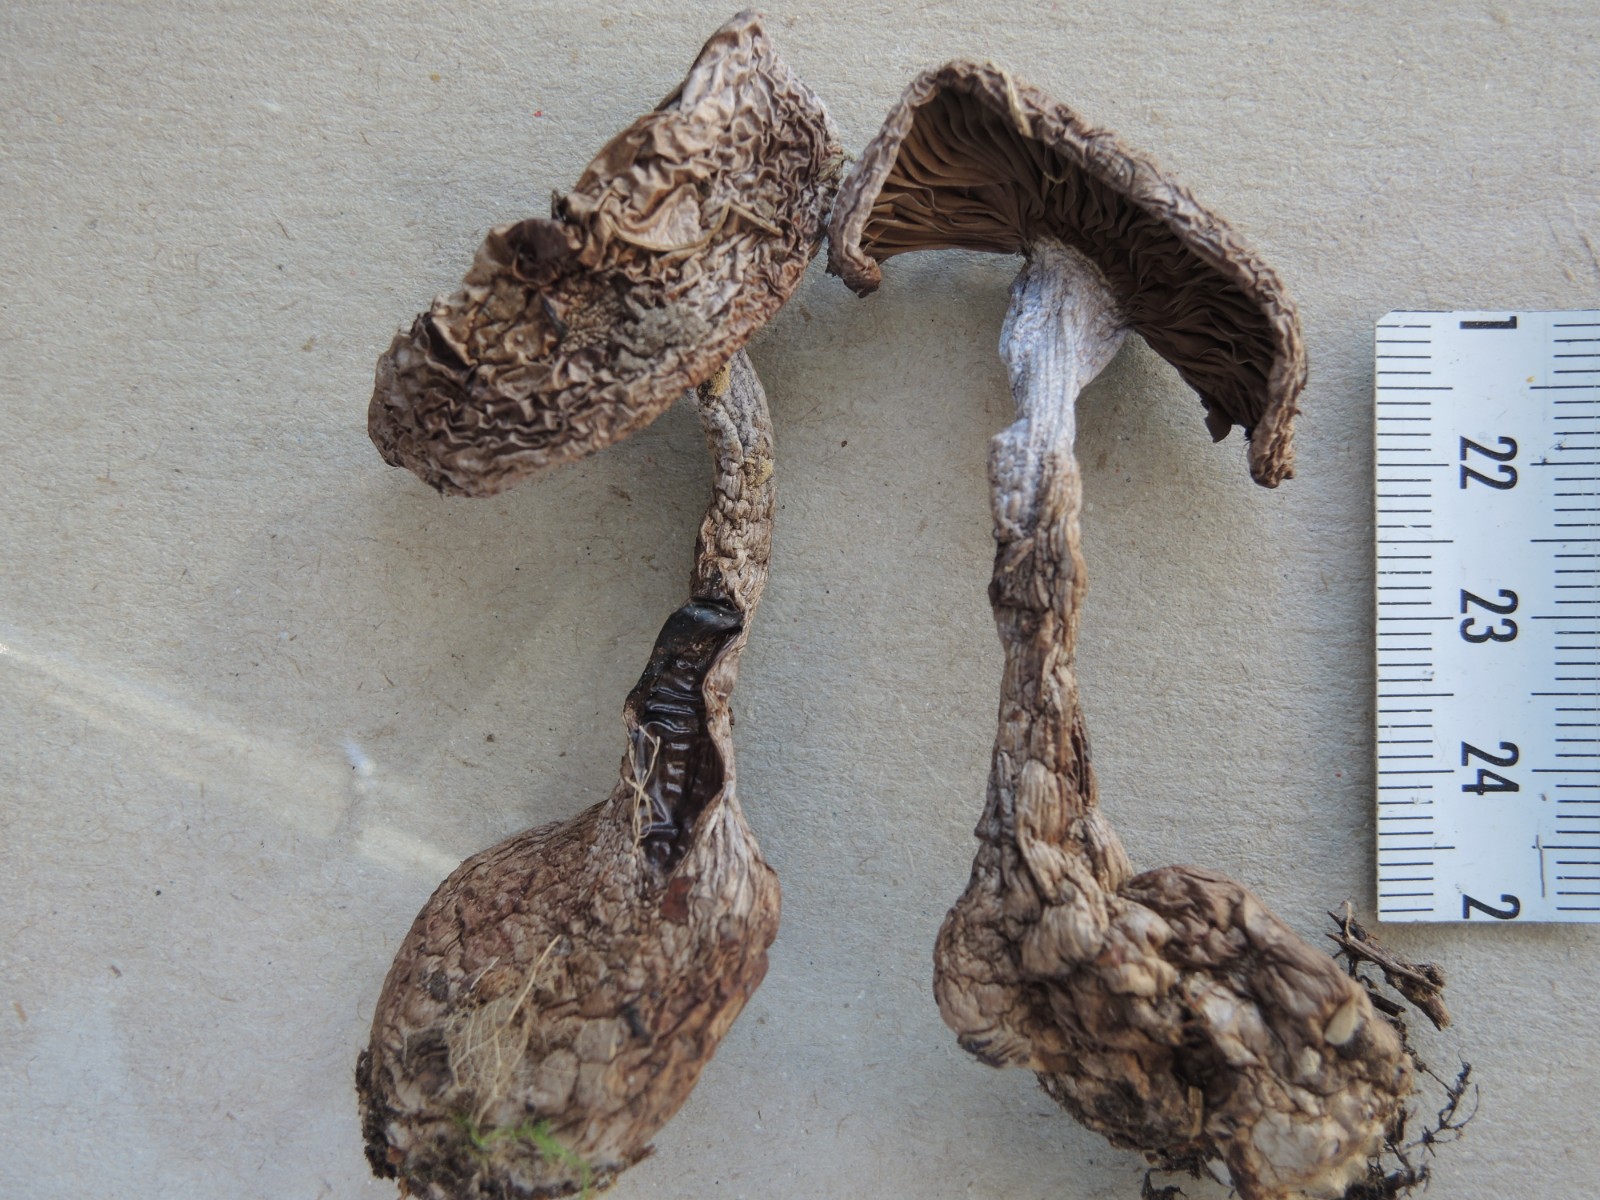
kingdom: Fungi
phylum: Basidiomycota
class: Agaricomycetes
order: Agaricales
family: Cortinariaceae
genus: Cortinarius
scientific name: Cortinarius cyanites
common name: mørkeblå slørhat
